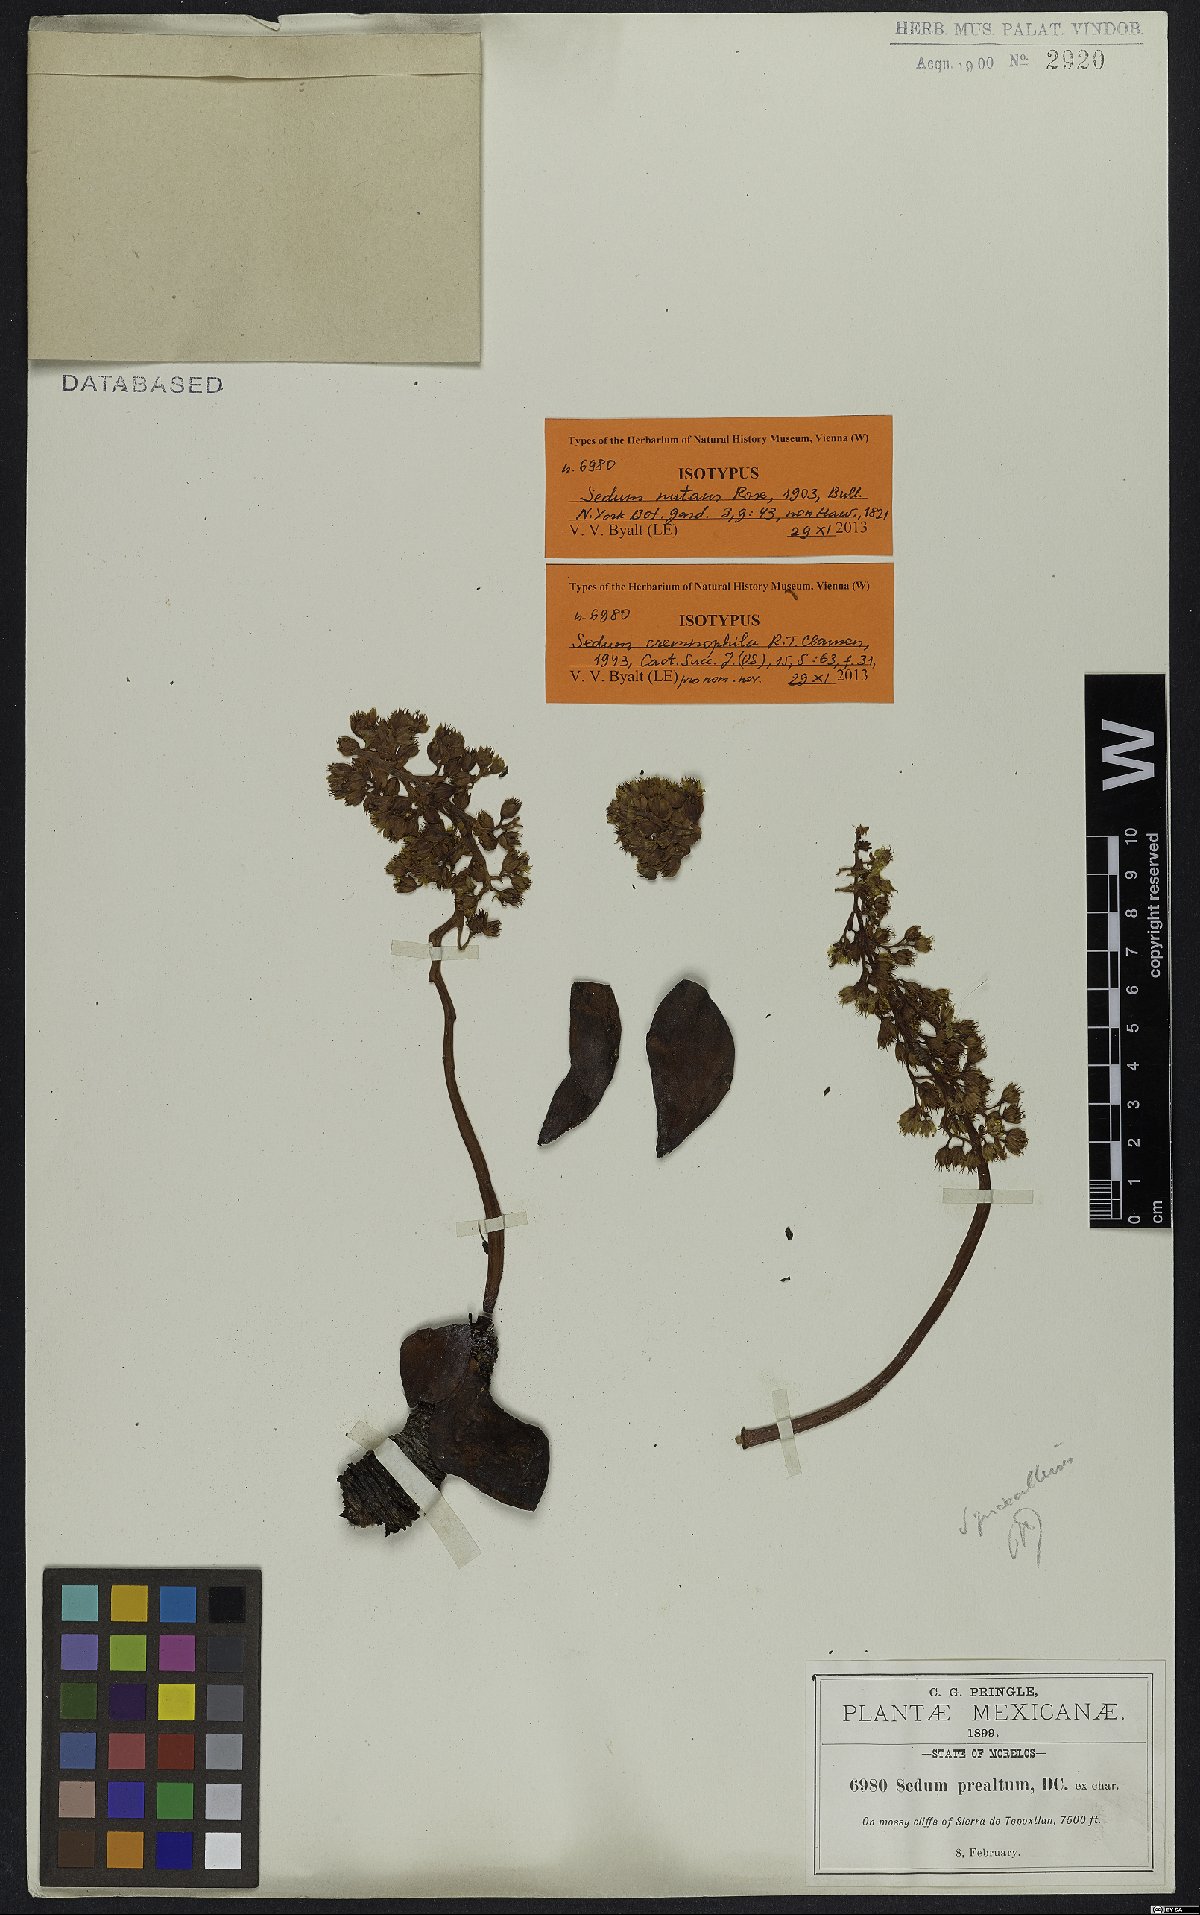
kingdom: Plantae
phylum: Tracheophyta
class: Magnoliopsida
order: Saxifragales
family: Crassulaceae
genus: Sedum
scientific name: Sedum cremnophila
